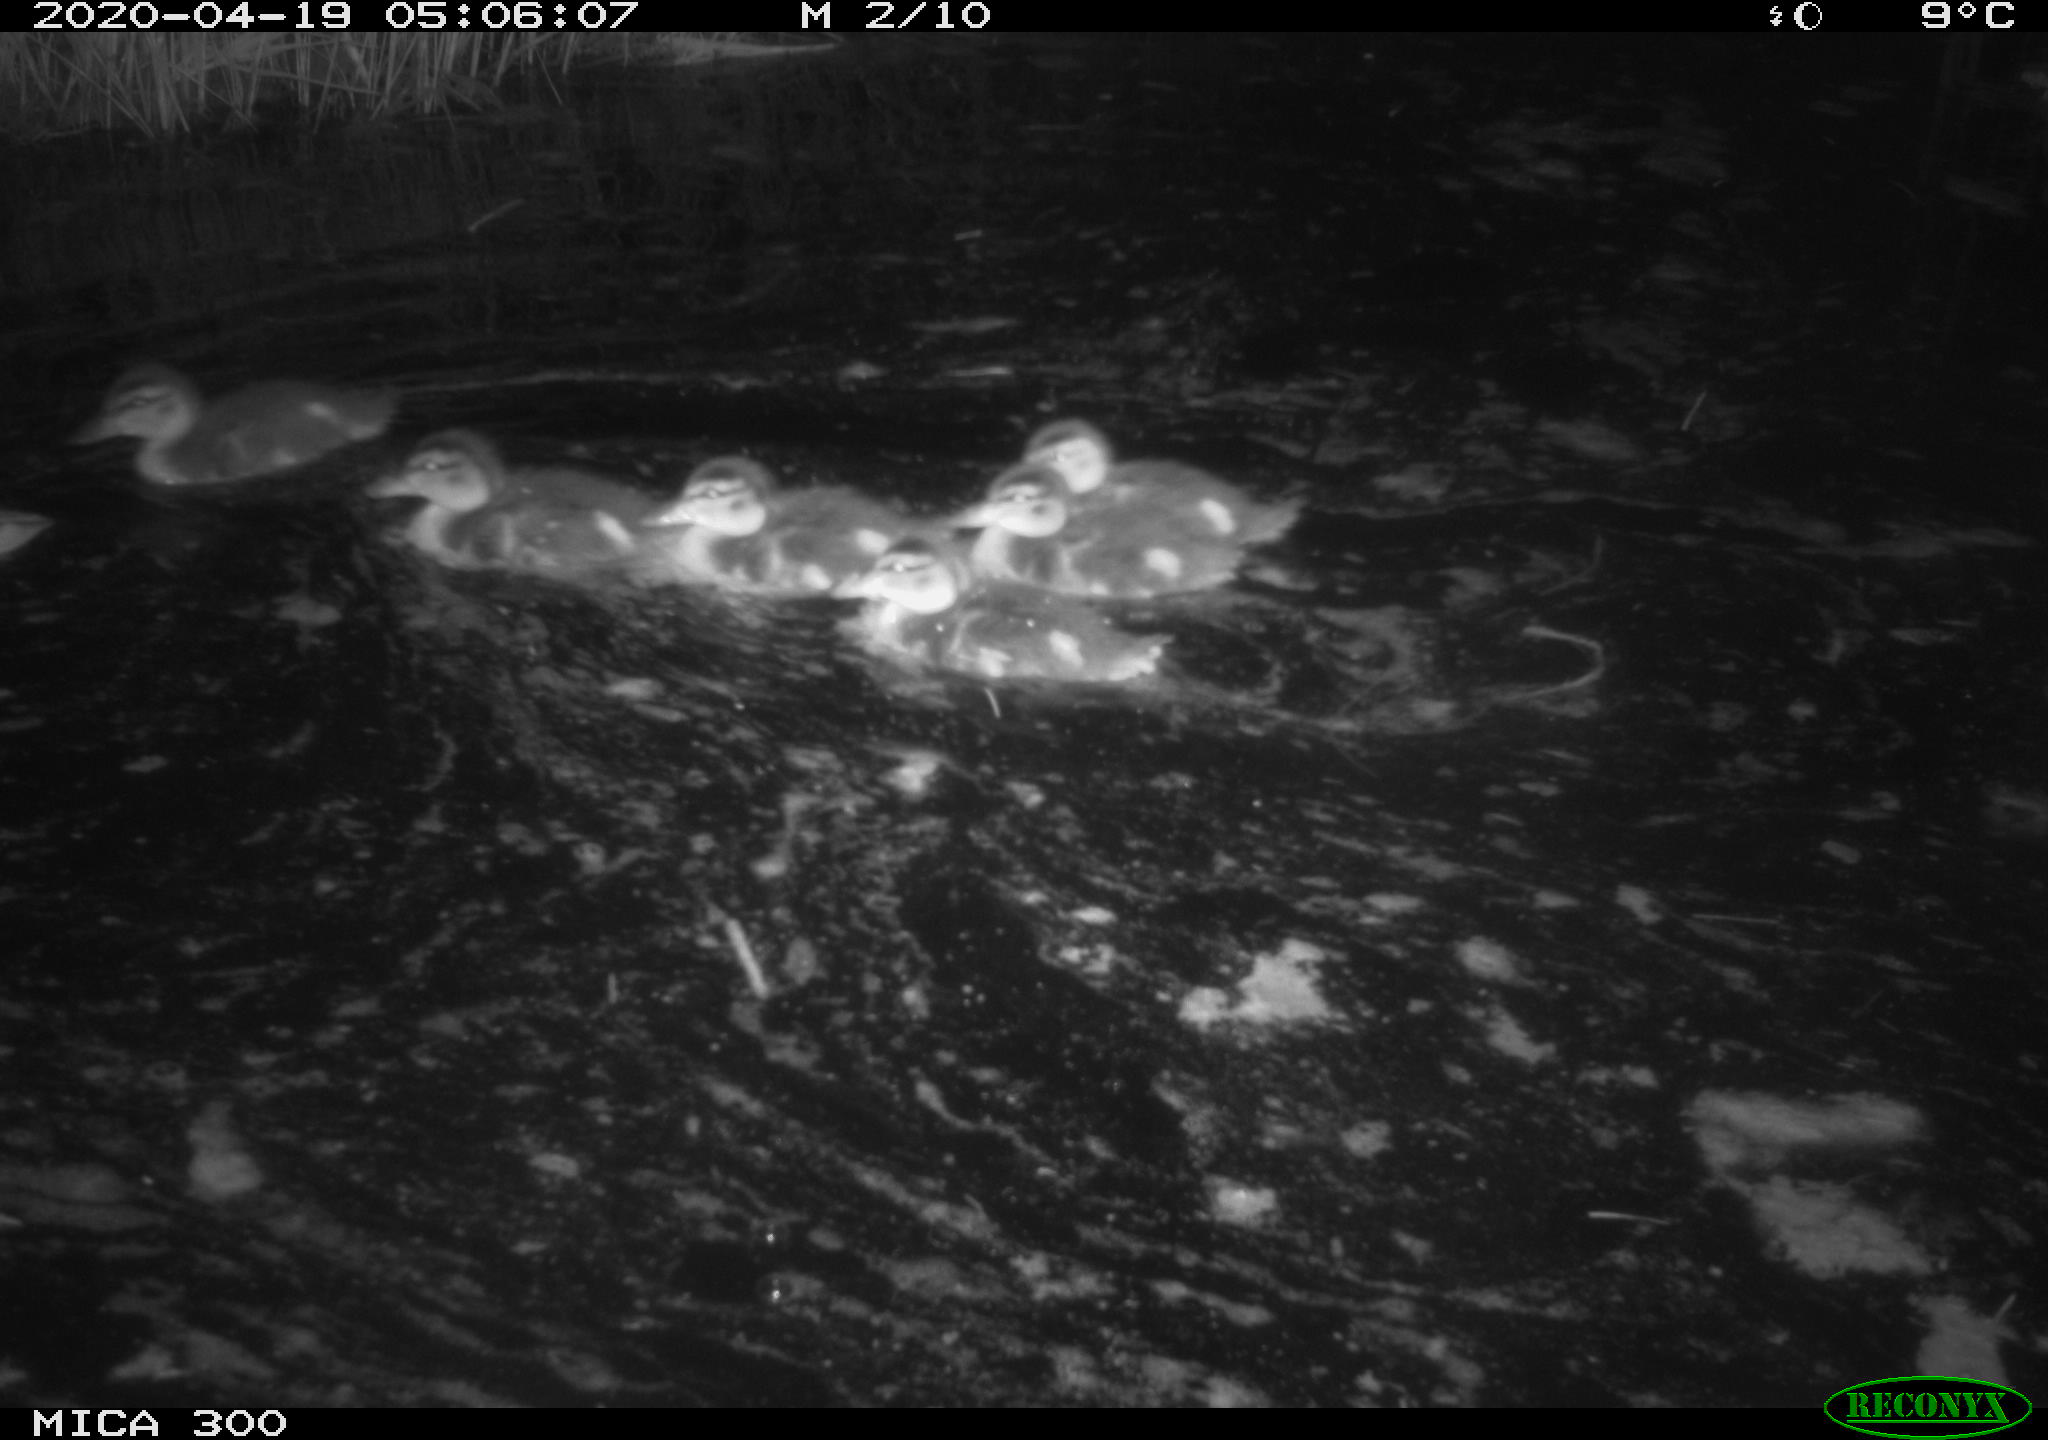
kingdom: Animalia
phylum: Chordata
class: Aves
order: Anseriformes
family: Anatidae
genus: Anas
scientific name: Anas platyrhynchos
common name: Mallard
